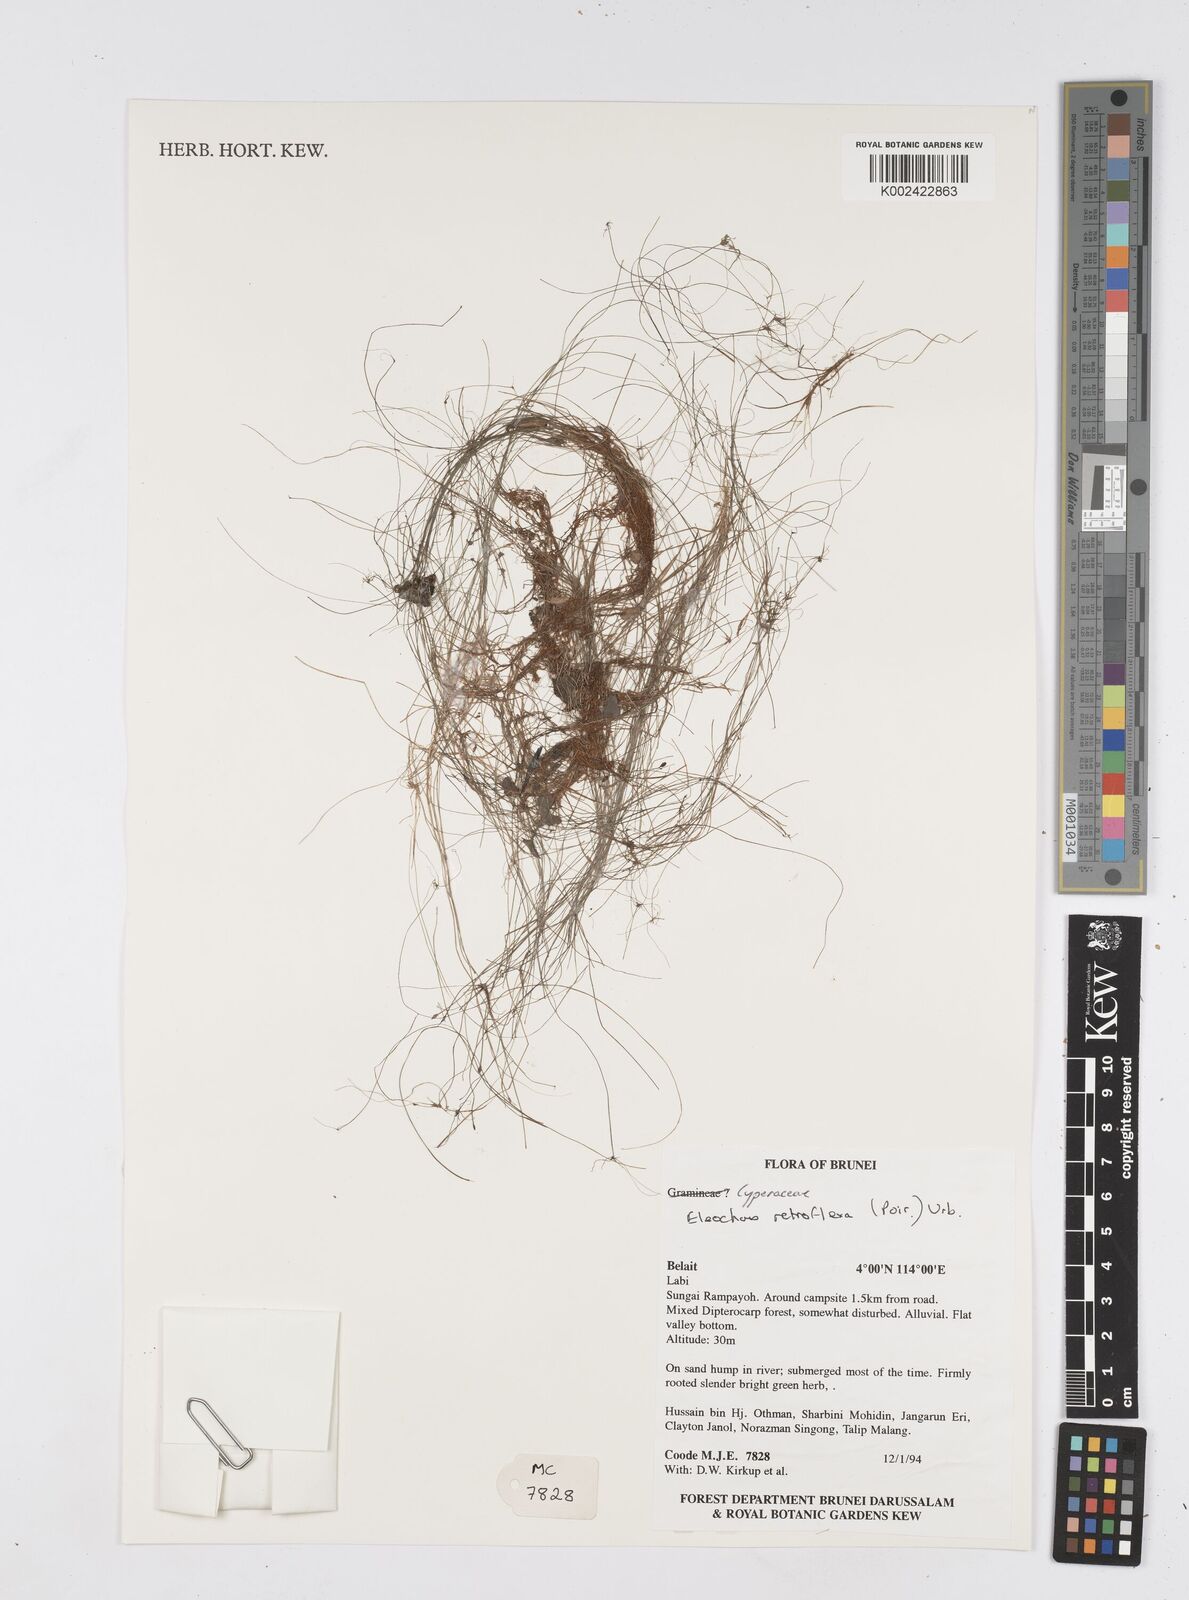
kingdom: Plantae
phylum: Tracheophyta
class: Liliopsida
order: Poales
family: Cyperaceae
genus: Eleocharis
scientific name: Eleocharis retroflexa
